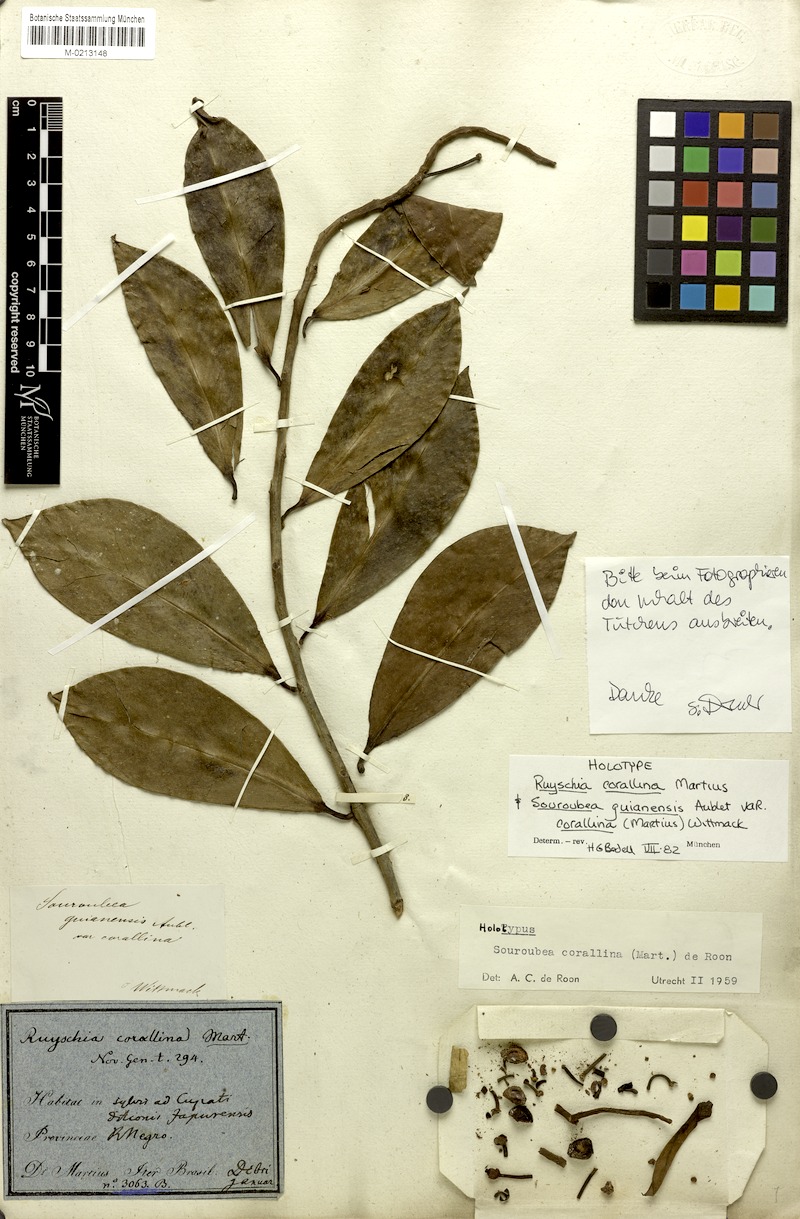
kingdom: Plantae
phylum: Tracheophyta
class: Magnoliopsida
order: Ericales
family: Marcgraviaceae
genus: Souroubea
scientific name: Souroubea corallina
